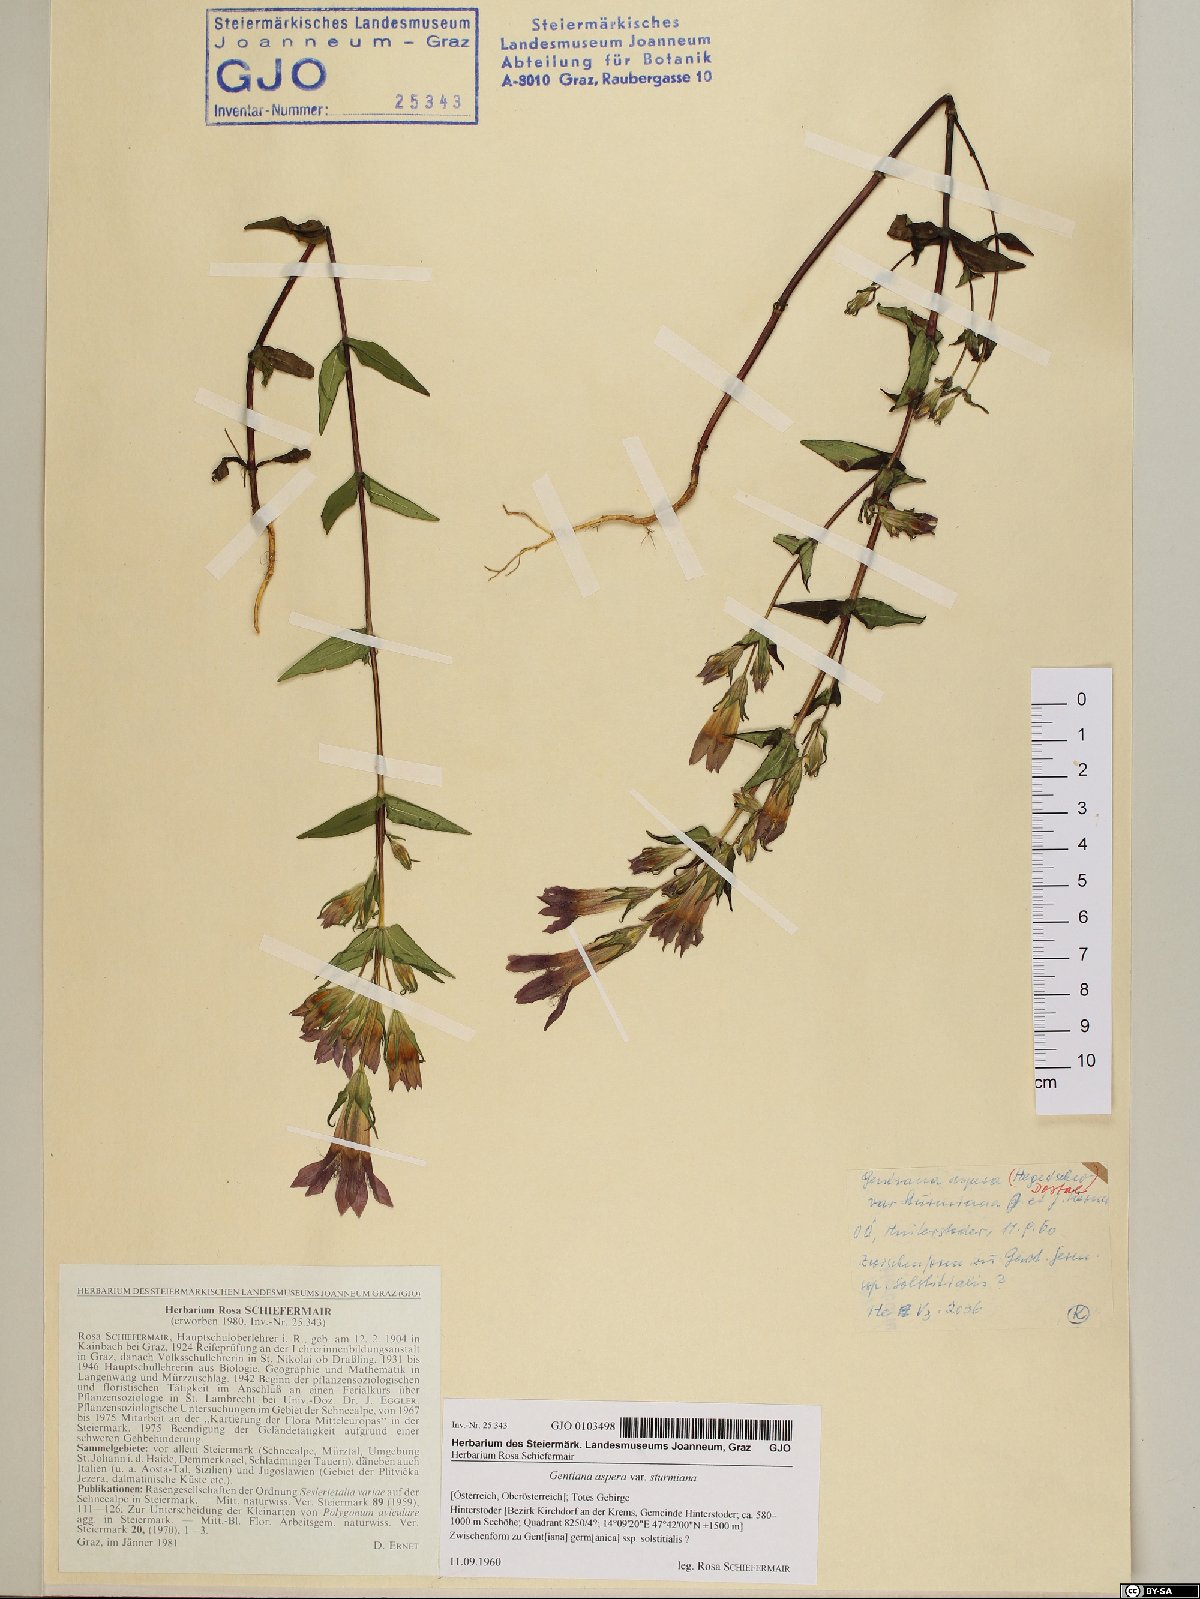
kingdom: Plantae
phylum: Tracheophyta
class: Magnoliopsida
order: Gentianales
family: Gentianaceae
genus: Gentianella
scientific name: Gentianella obtusifolia
